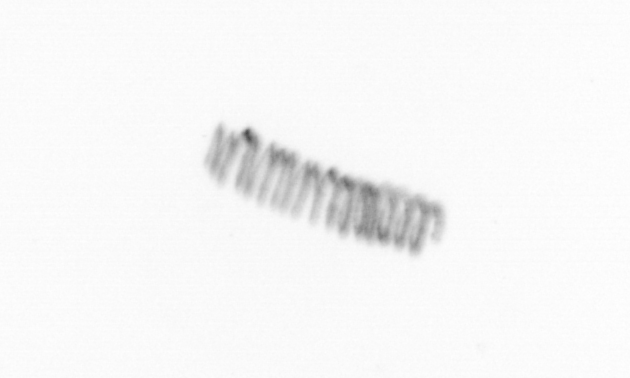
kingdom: Chromista
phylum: Ochrophyta
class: Bacillariophyceae
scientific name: Bacillariophyceae
